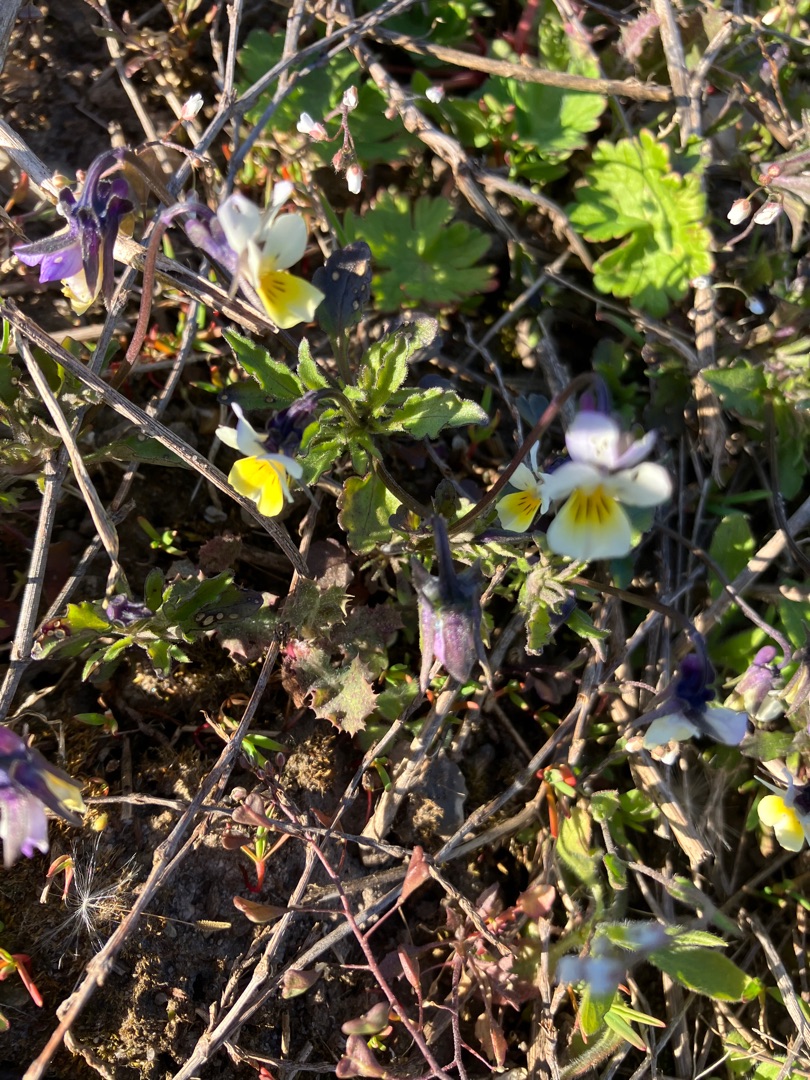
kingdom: Plantae
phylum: Tracheophyta
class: Magnoliopsida
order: Malpighiales
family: Violaceae
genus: Viola
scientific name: Viola arvensis
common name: Ager-stedmoderblomst
